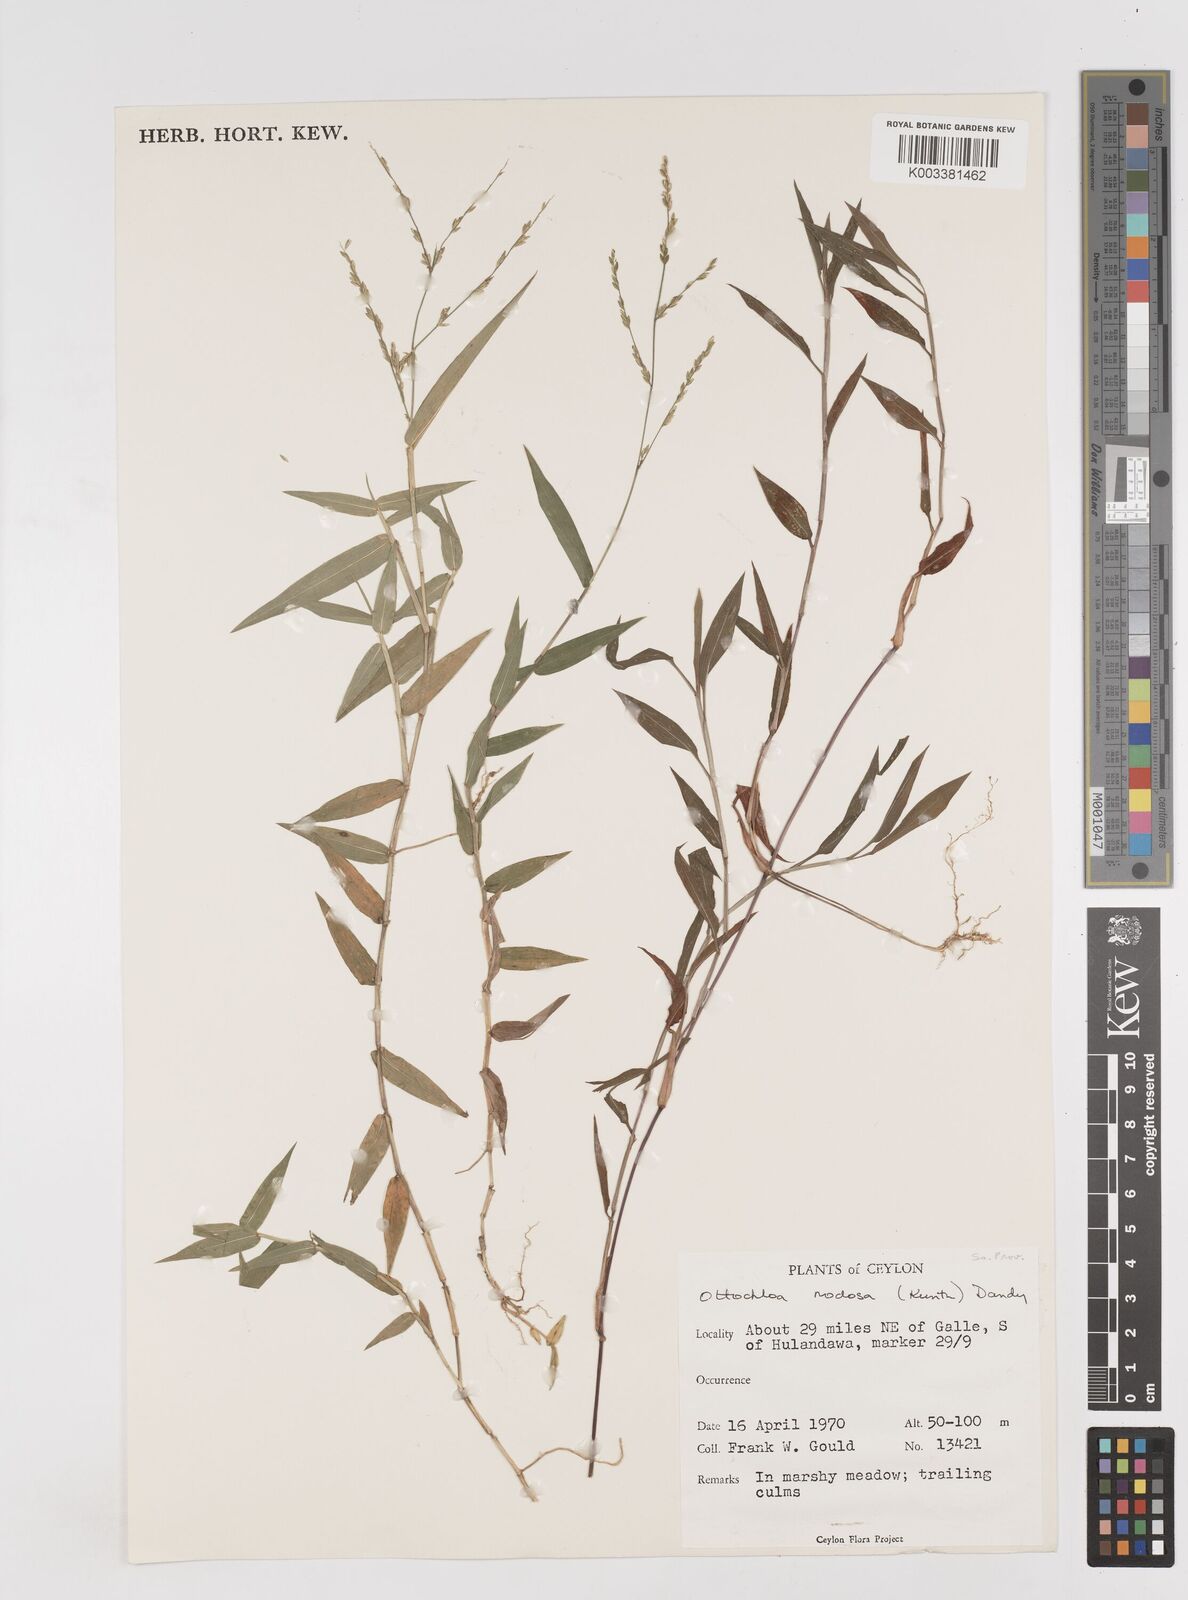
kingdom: Plantae
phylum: Tracheophyta
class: Liliopsida
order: Poales
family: Poaceae
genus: Ottochloa
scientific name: Ottochloa nodosa
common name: Slender-panic grass
